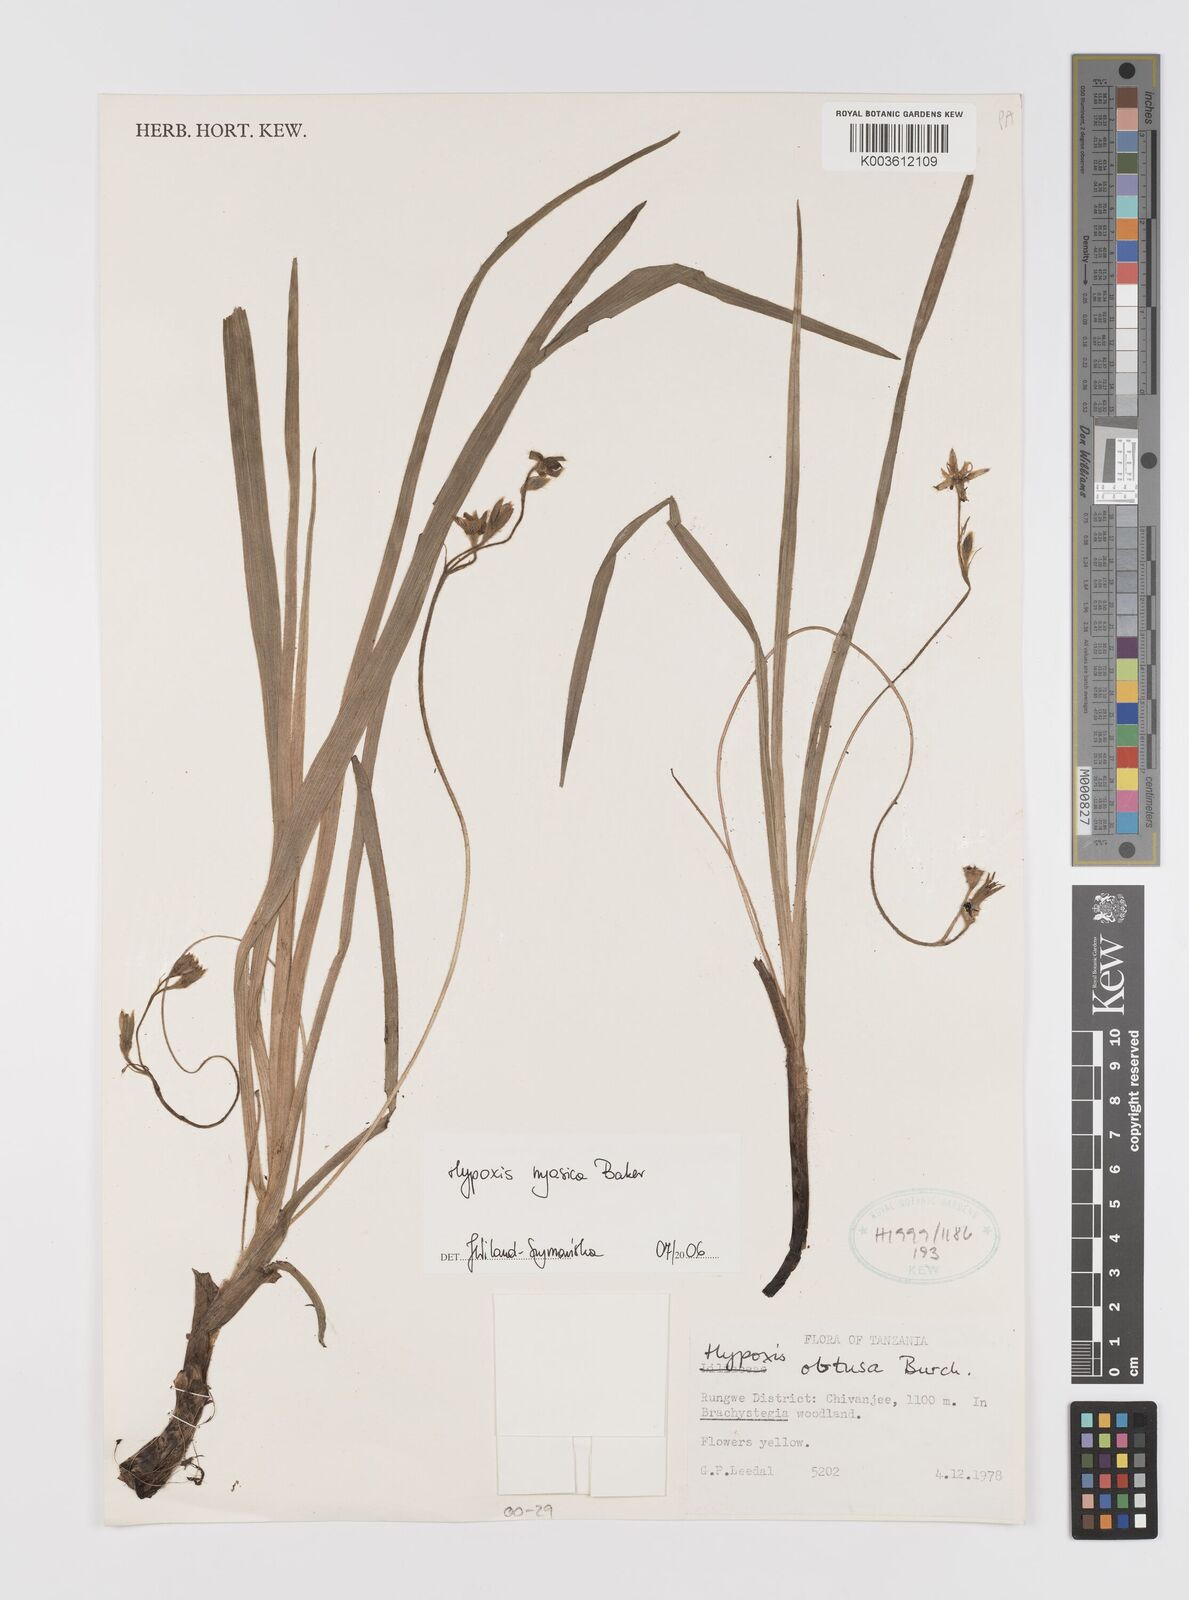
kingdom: Plantae
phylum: Tracheophyta
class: Liliopsida
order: Asparagales
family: Hypoxidaceae
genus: Hypoxis
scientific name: Hypoxis nyasica
